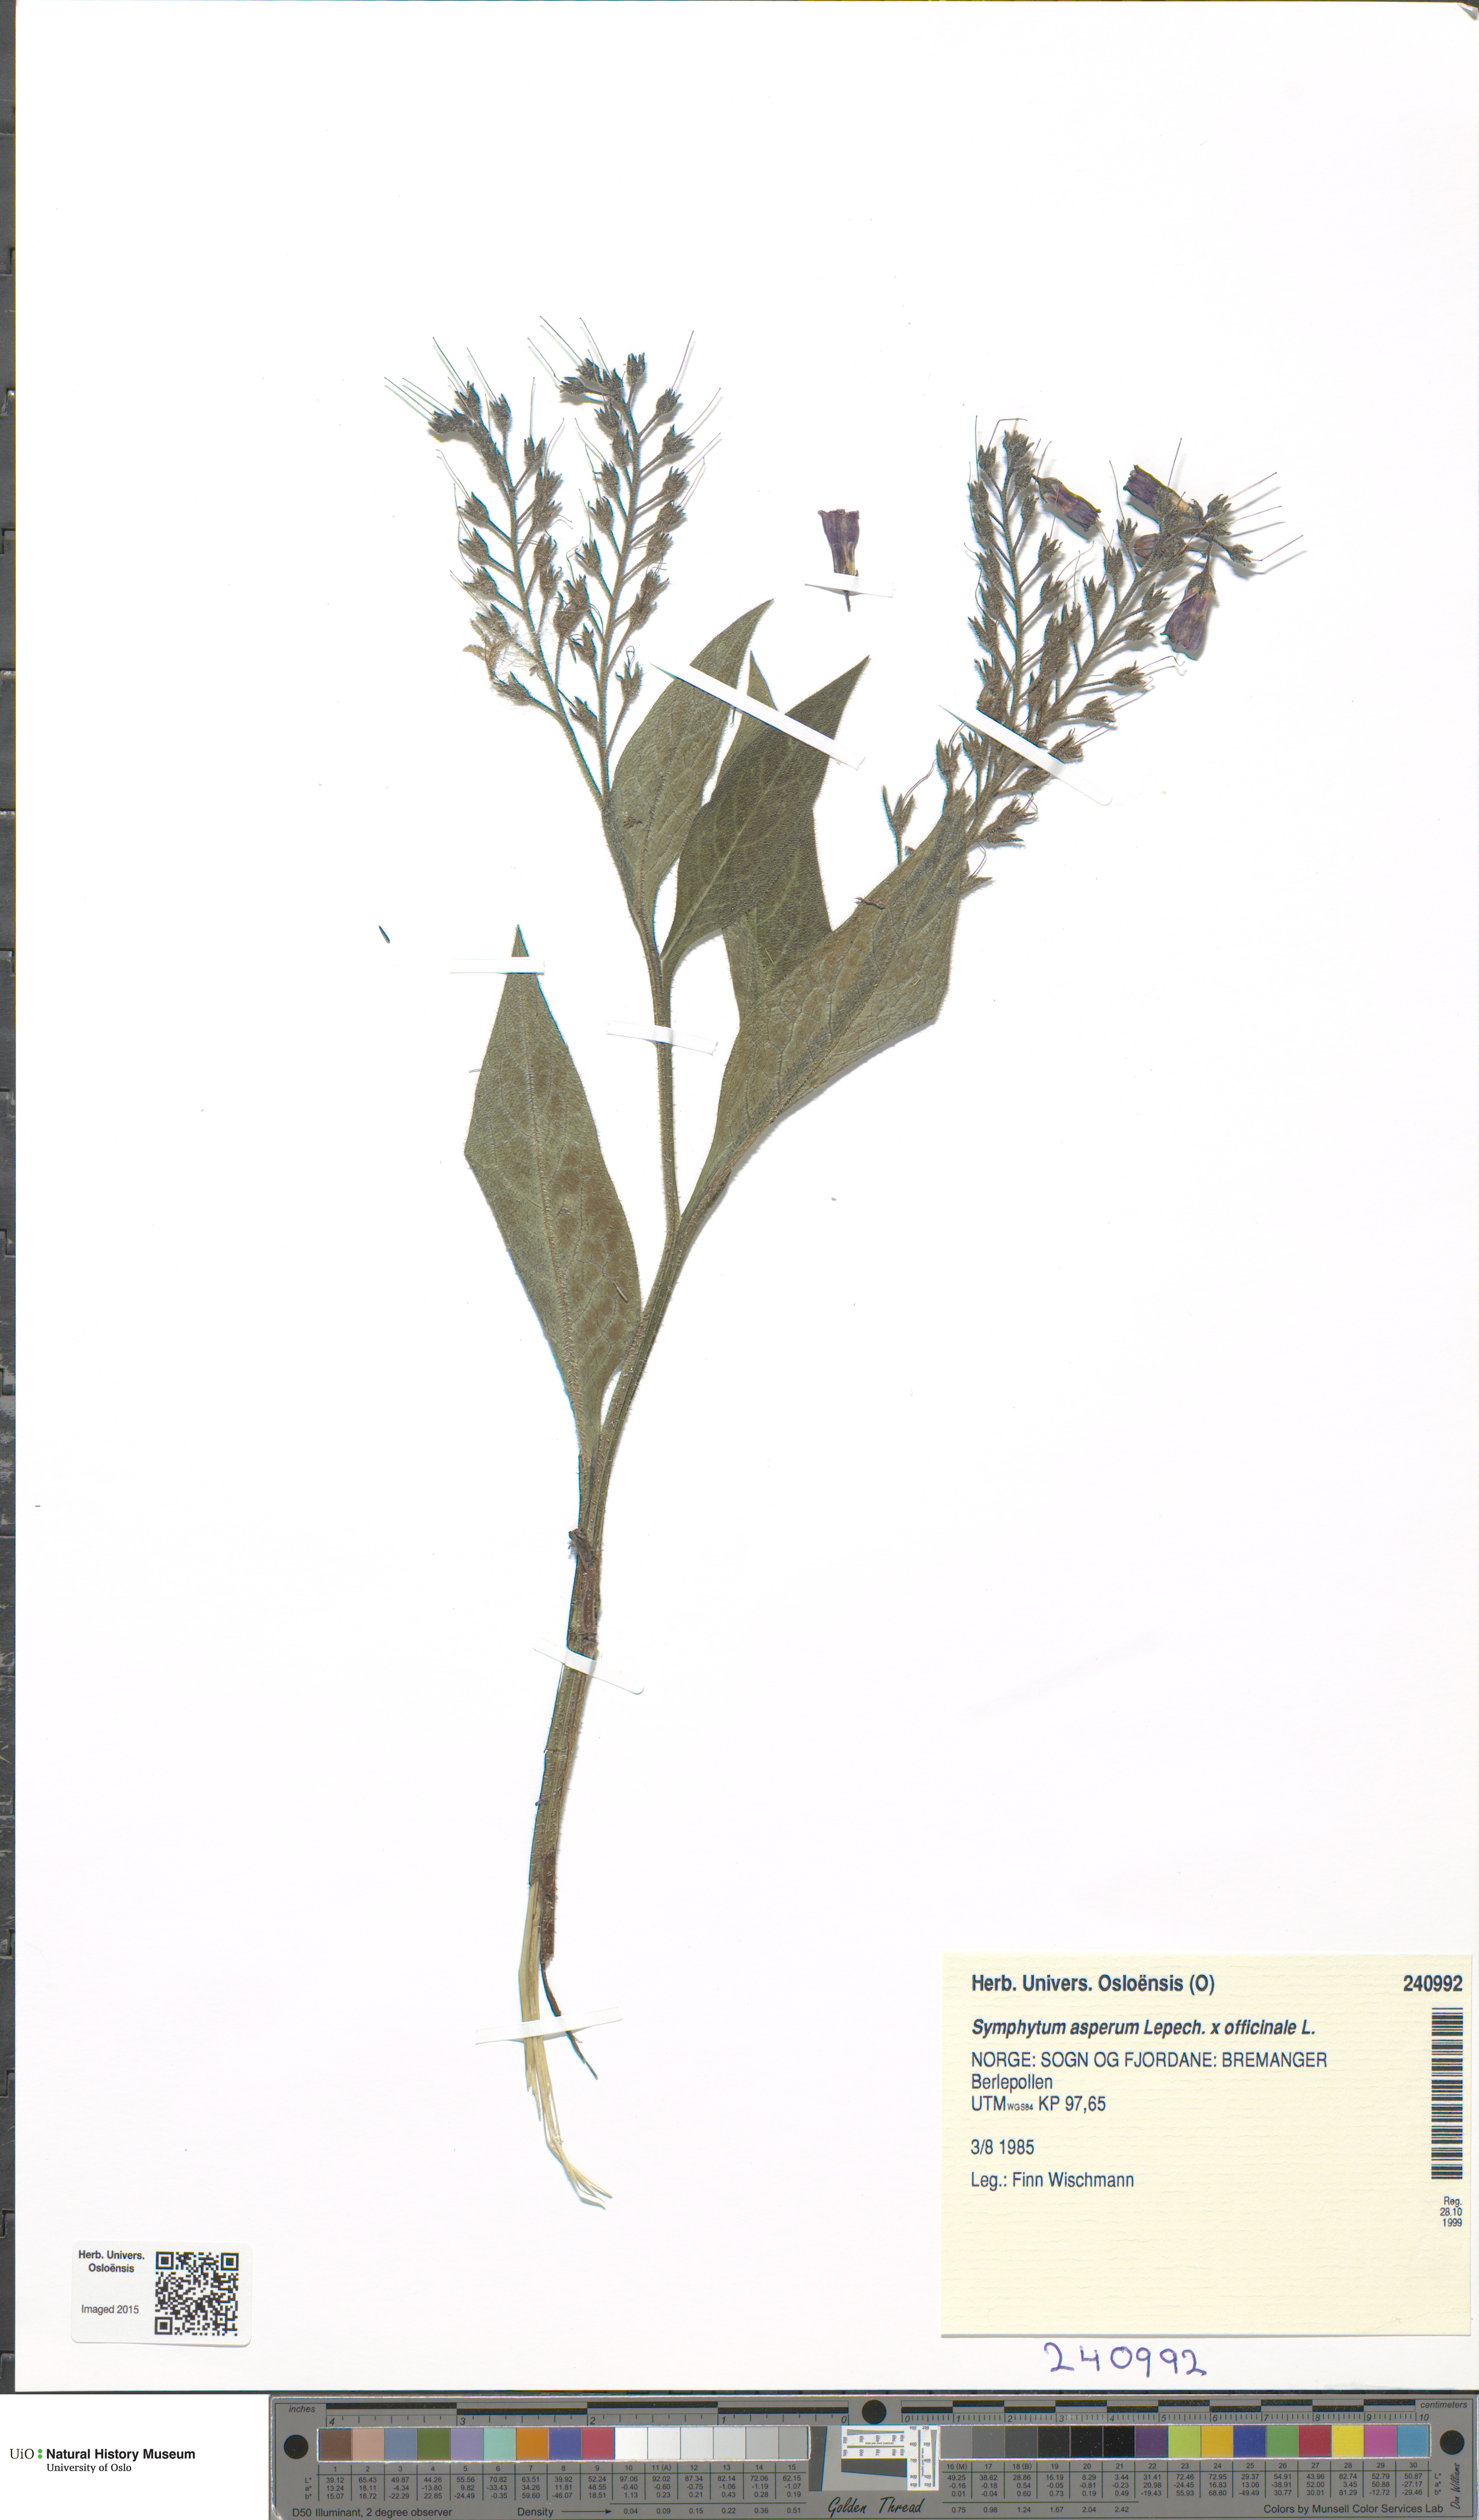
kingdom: Plantae
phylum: Tracheophyta
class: Magnoliopsida
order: Boraginales
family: Boraginaceae
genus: Symphytum
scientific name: Symphytum
